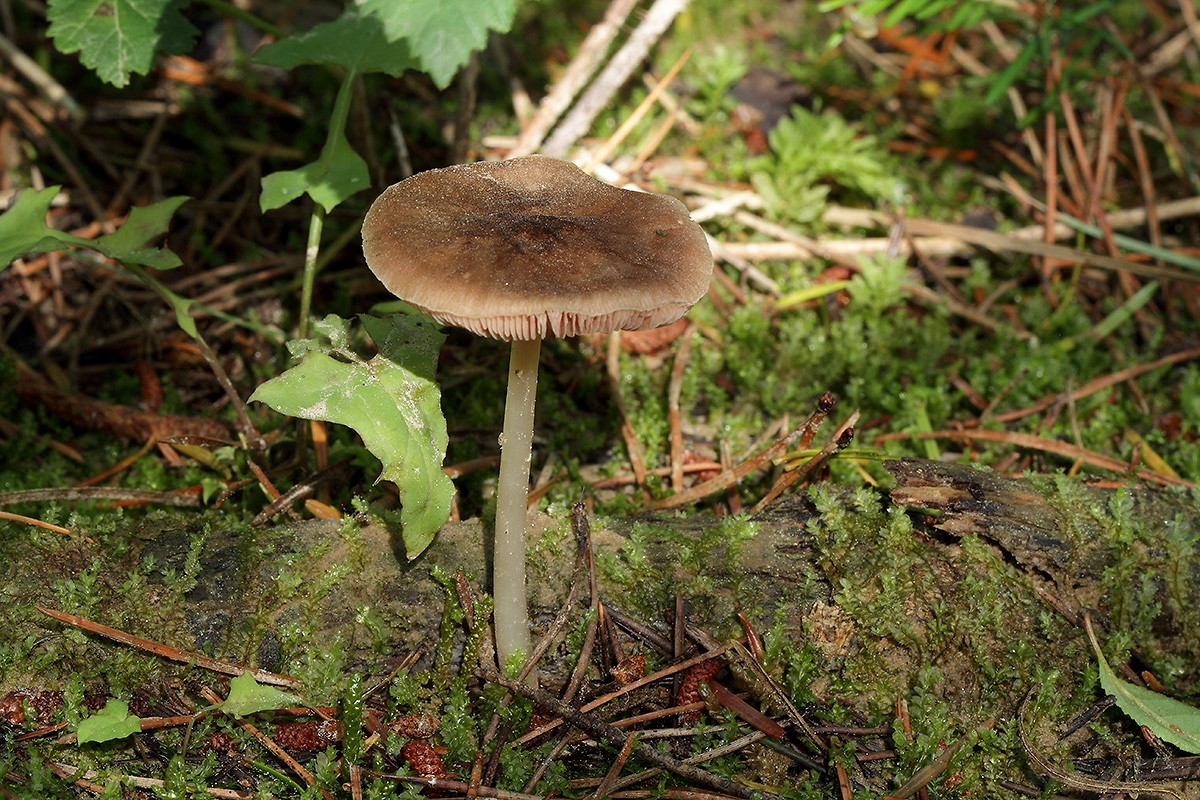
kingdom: Fungi
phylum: Basidiomycota
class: Agaricomycetes
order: Agaricales
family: Pluteaceae
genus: Pluteus
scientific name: Pluteus roseipes
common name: rosafodet skærmhat
